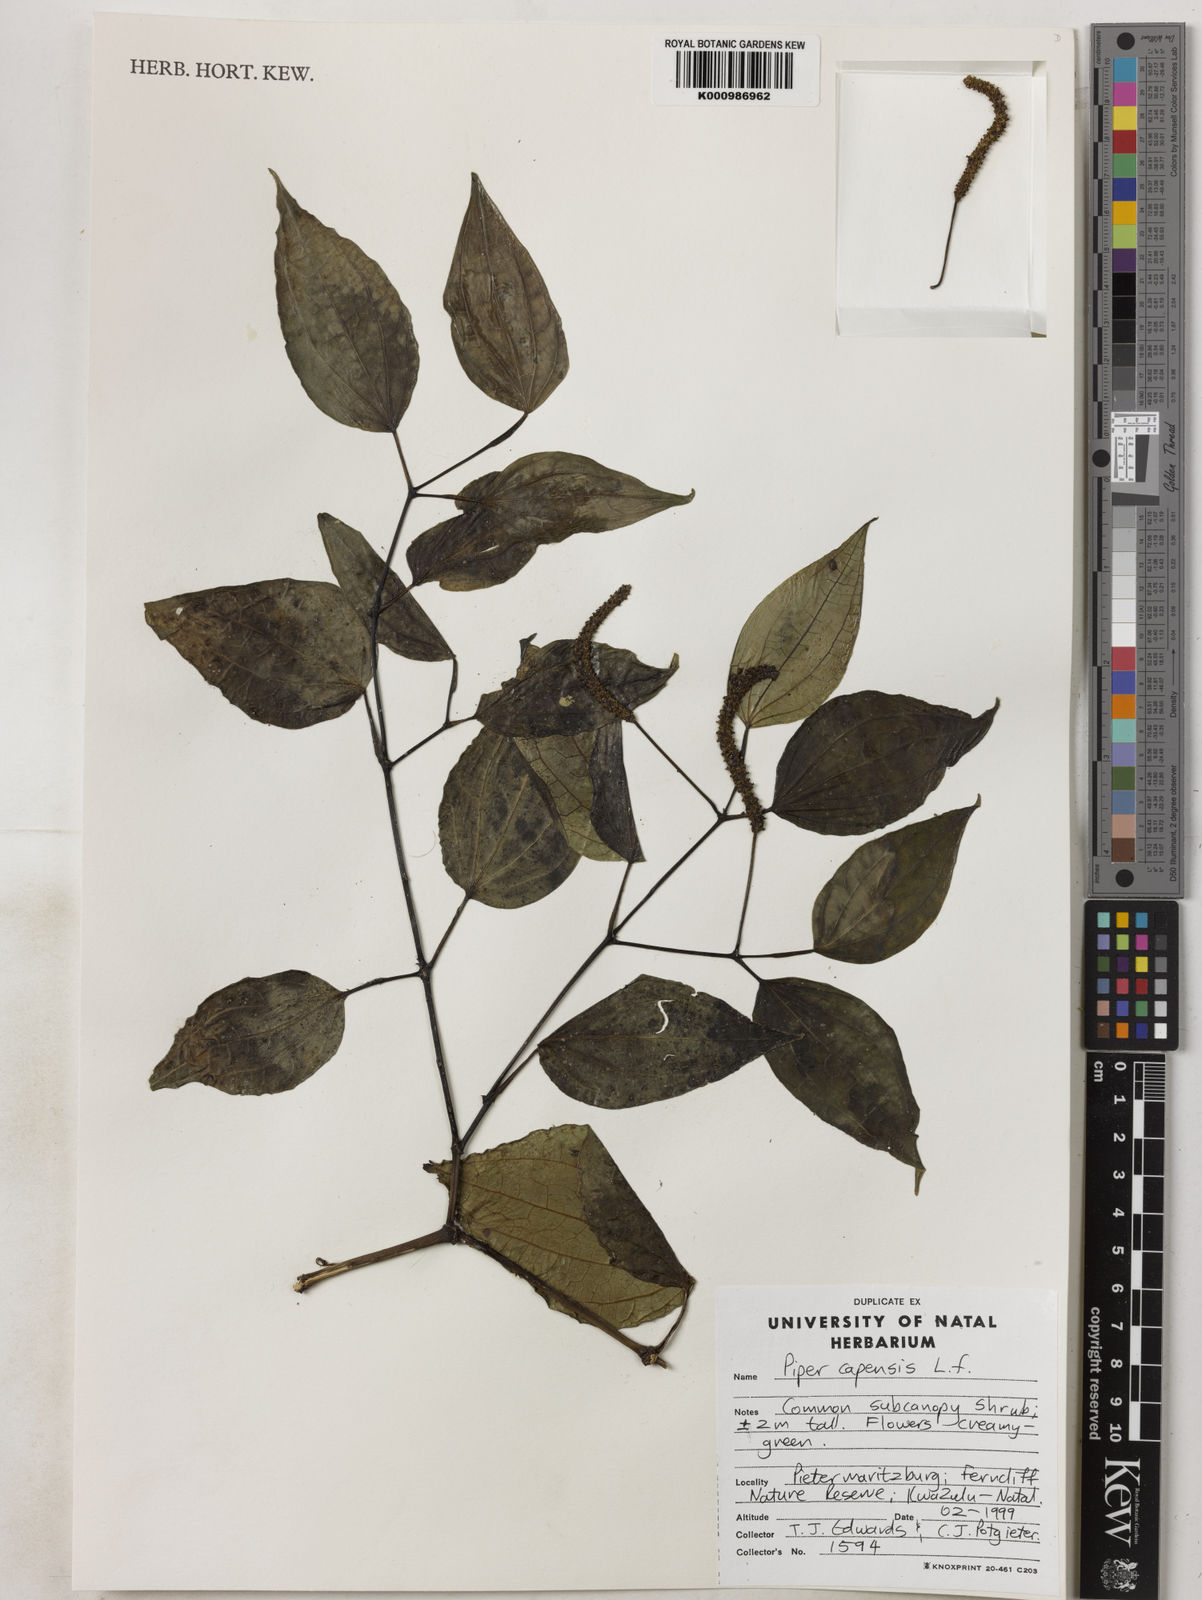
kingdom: Plantae
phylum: Tracheophyta
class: Magnoliopsida
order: Piperales
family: Piperaceae
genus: Piper
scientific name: Piper capense
